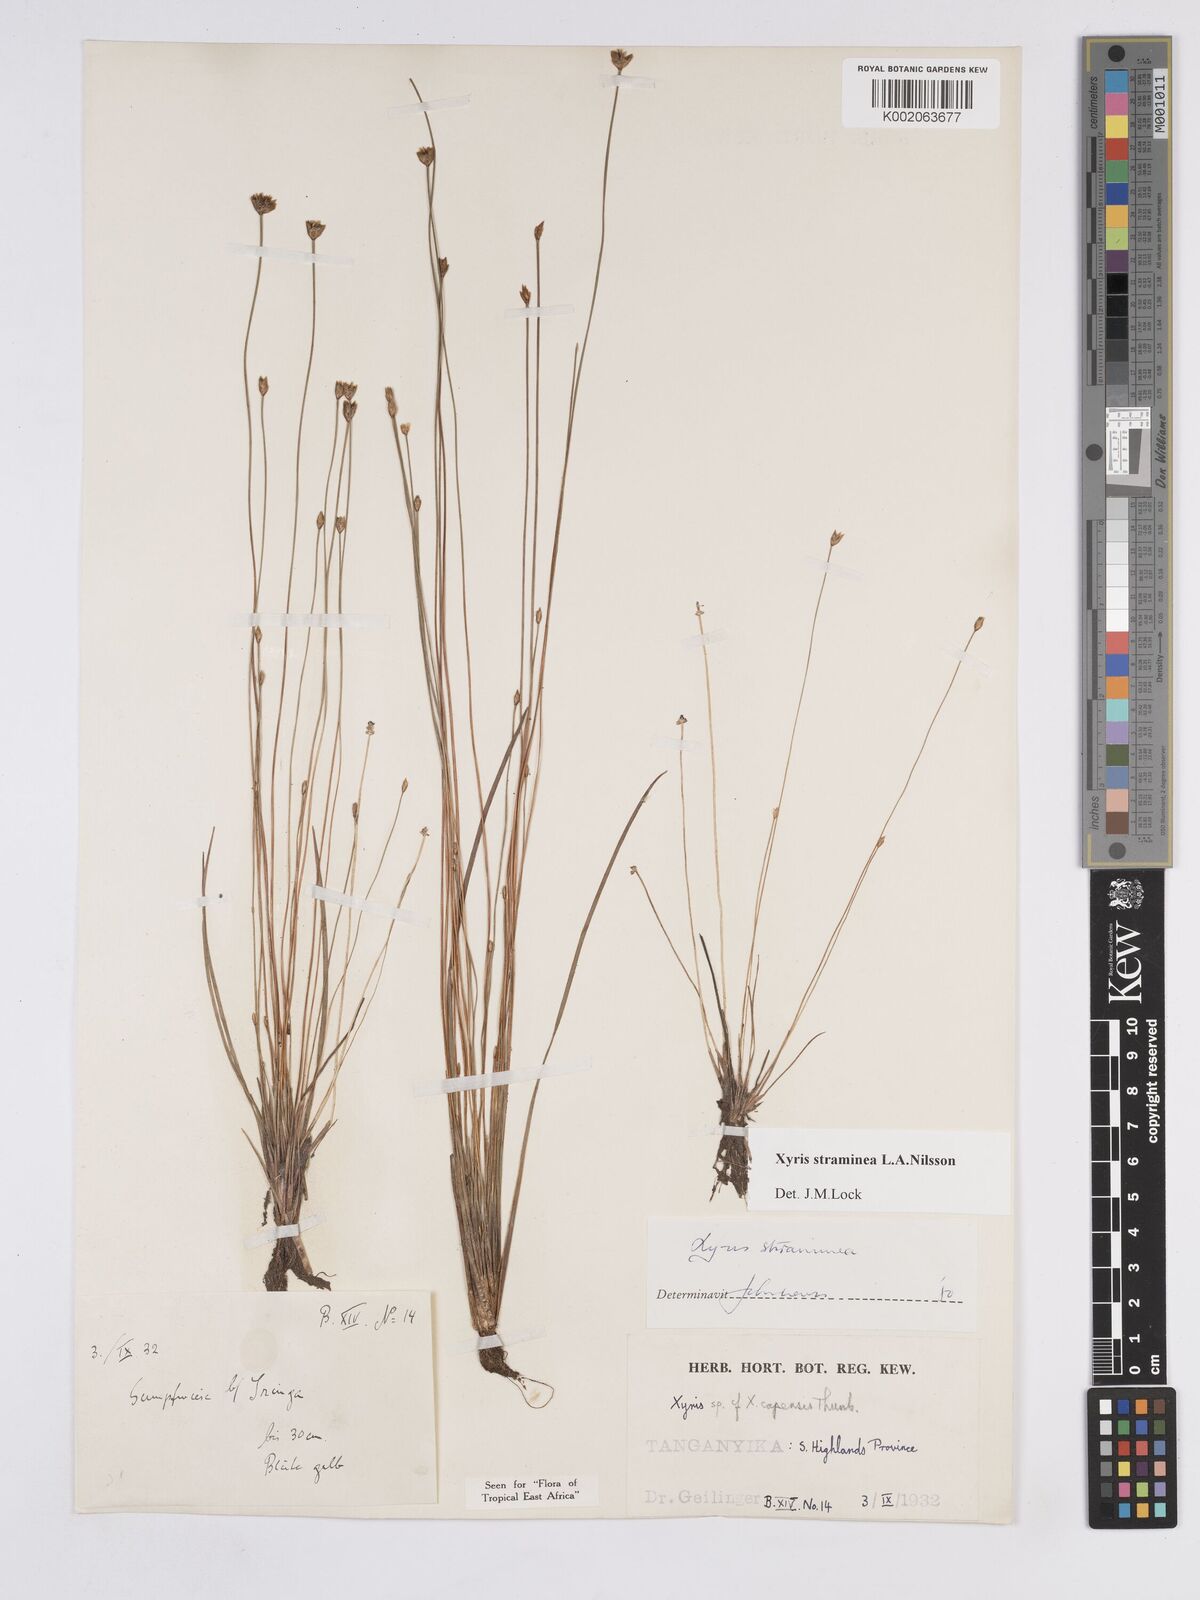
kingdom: Plantae
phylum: Tracheophyta
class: Liliopsida
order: Poales
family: Xyridaceae
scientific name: Xyridaceae
